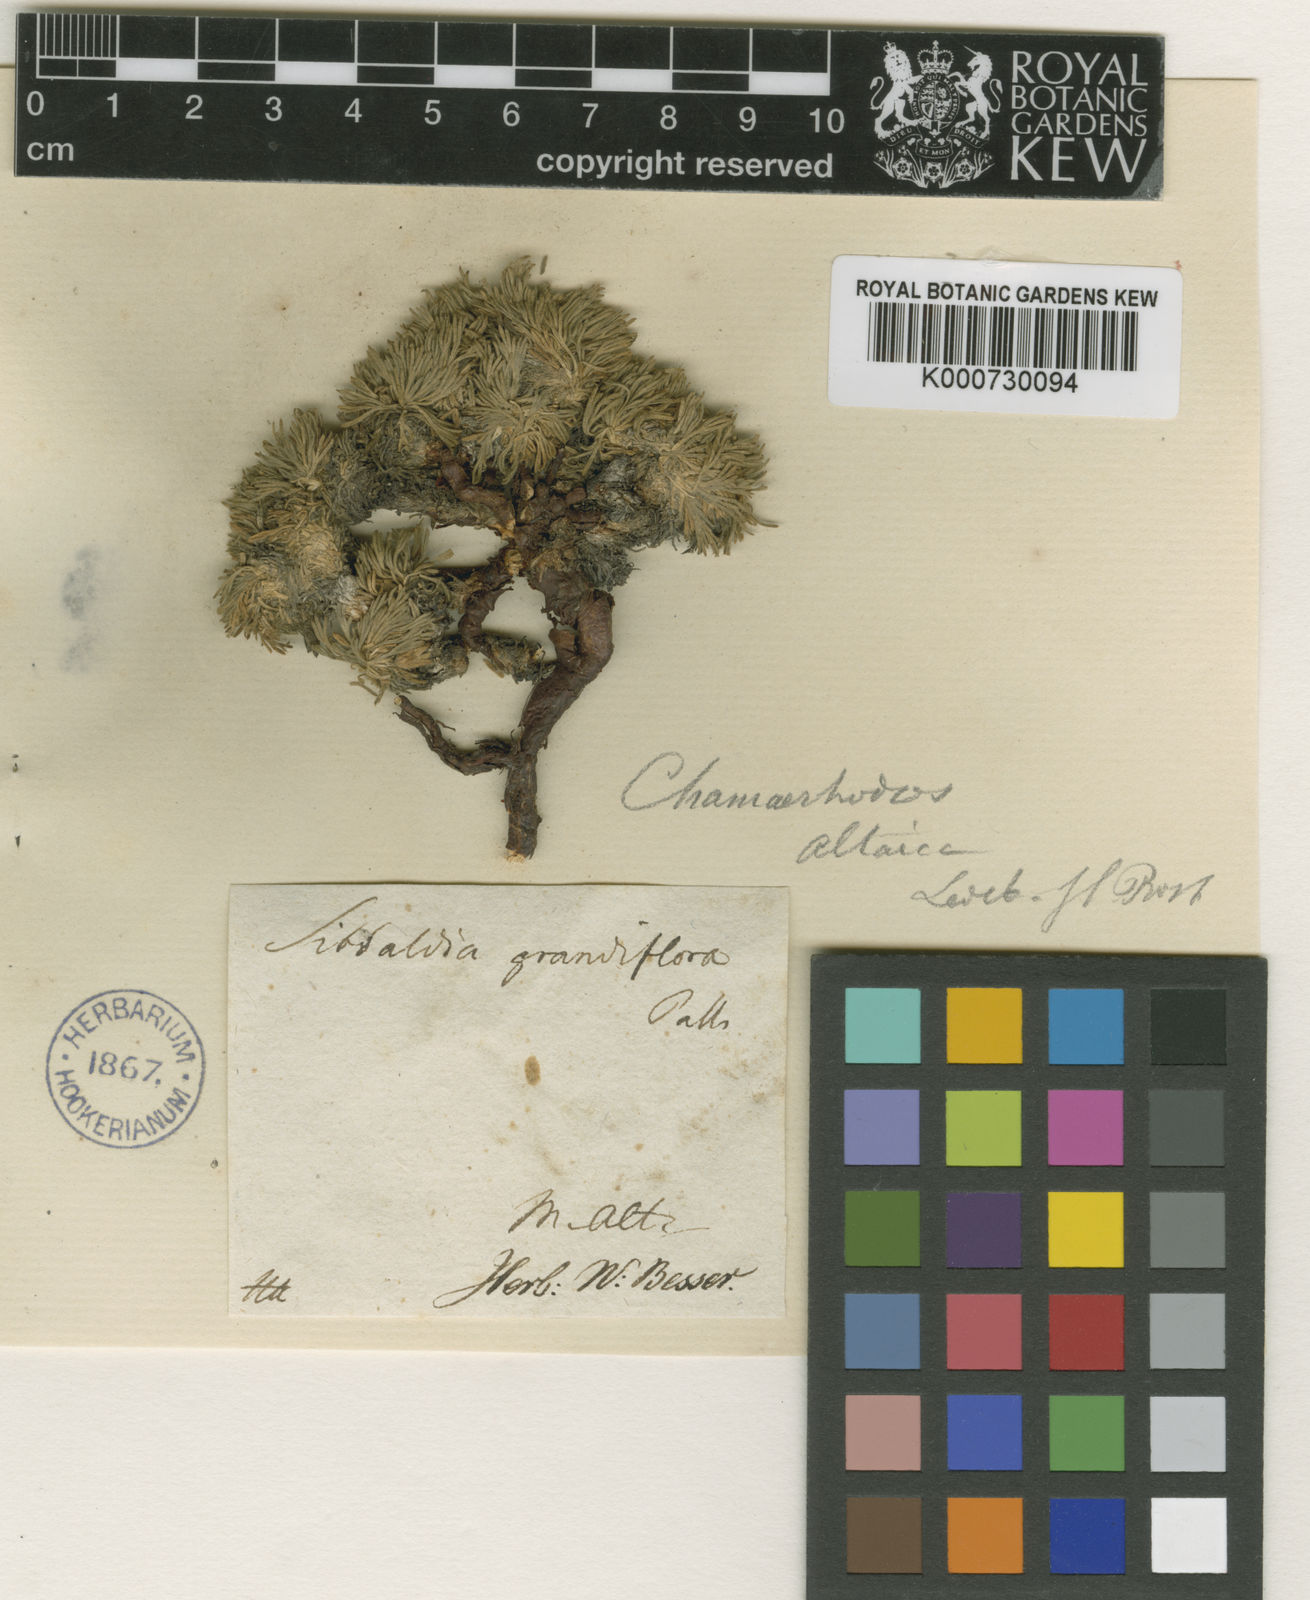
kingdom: Plantae
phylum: Tracheophyta
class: Magnoliopsida
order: Rosales
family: Rosaceae
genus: Chamaerhodos
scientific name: Chamaerhodos altaica
